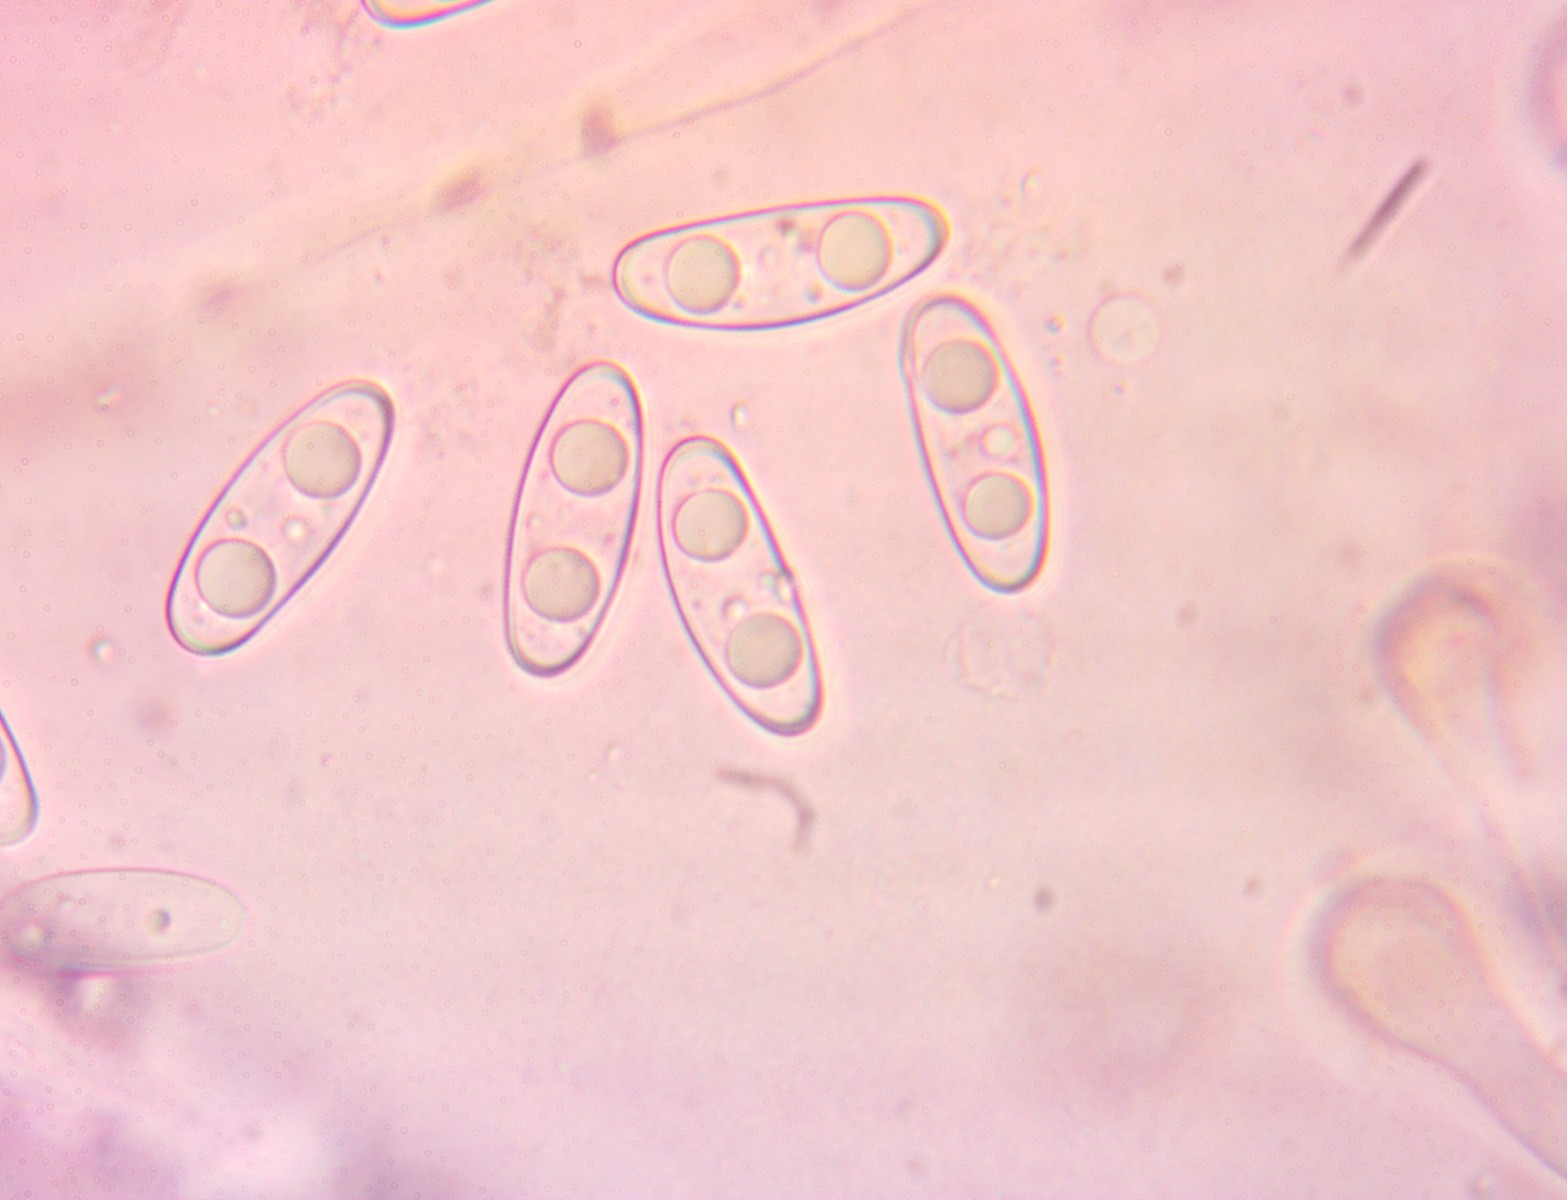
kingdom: Fungi
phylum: Ascomycota
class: Pezizomycetes
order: Pezizales
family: Discinaceae
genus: Gyromitra
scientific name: Gyromitra infula
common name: bispehue-stenmorkel
